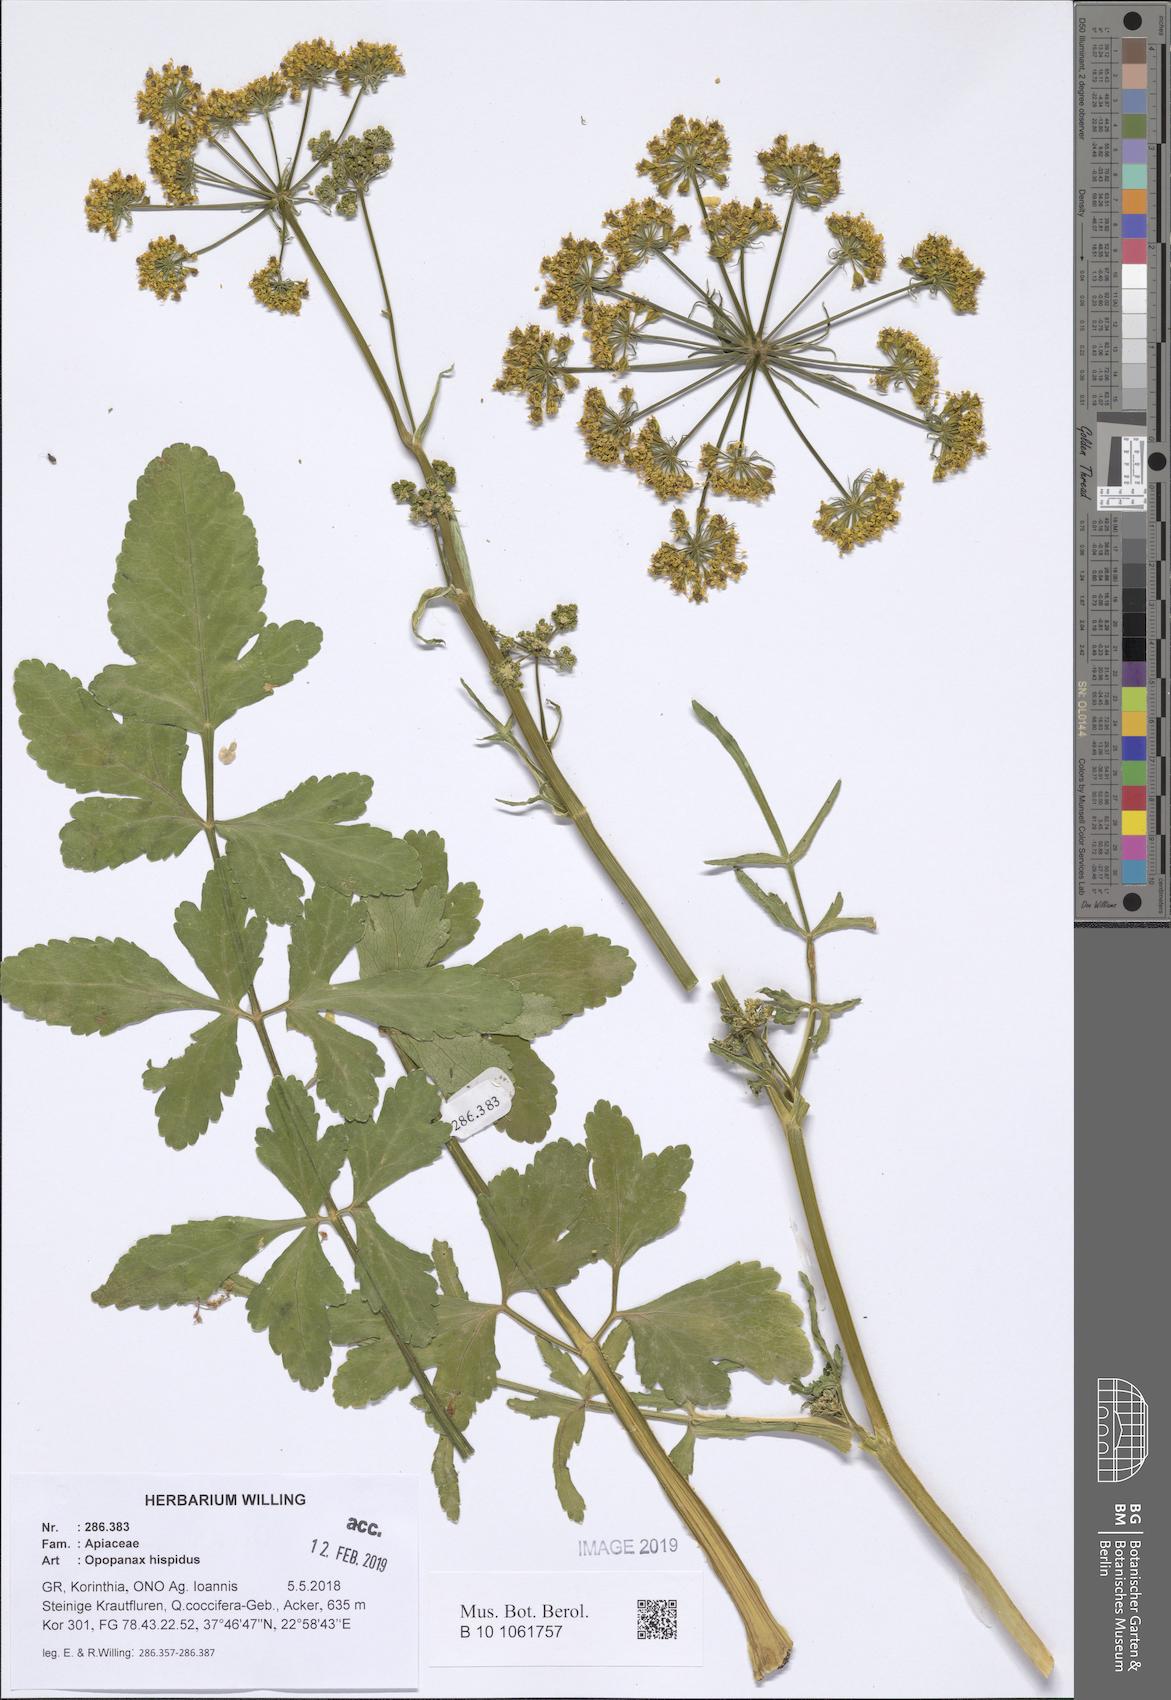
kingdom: Plantae
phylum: Tracheophyta
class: Magnoliopsida
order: Apiales
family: Apiaceae
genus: Opopanax
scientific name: Opopanax hispidus
